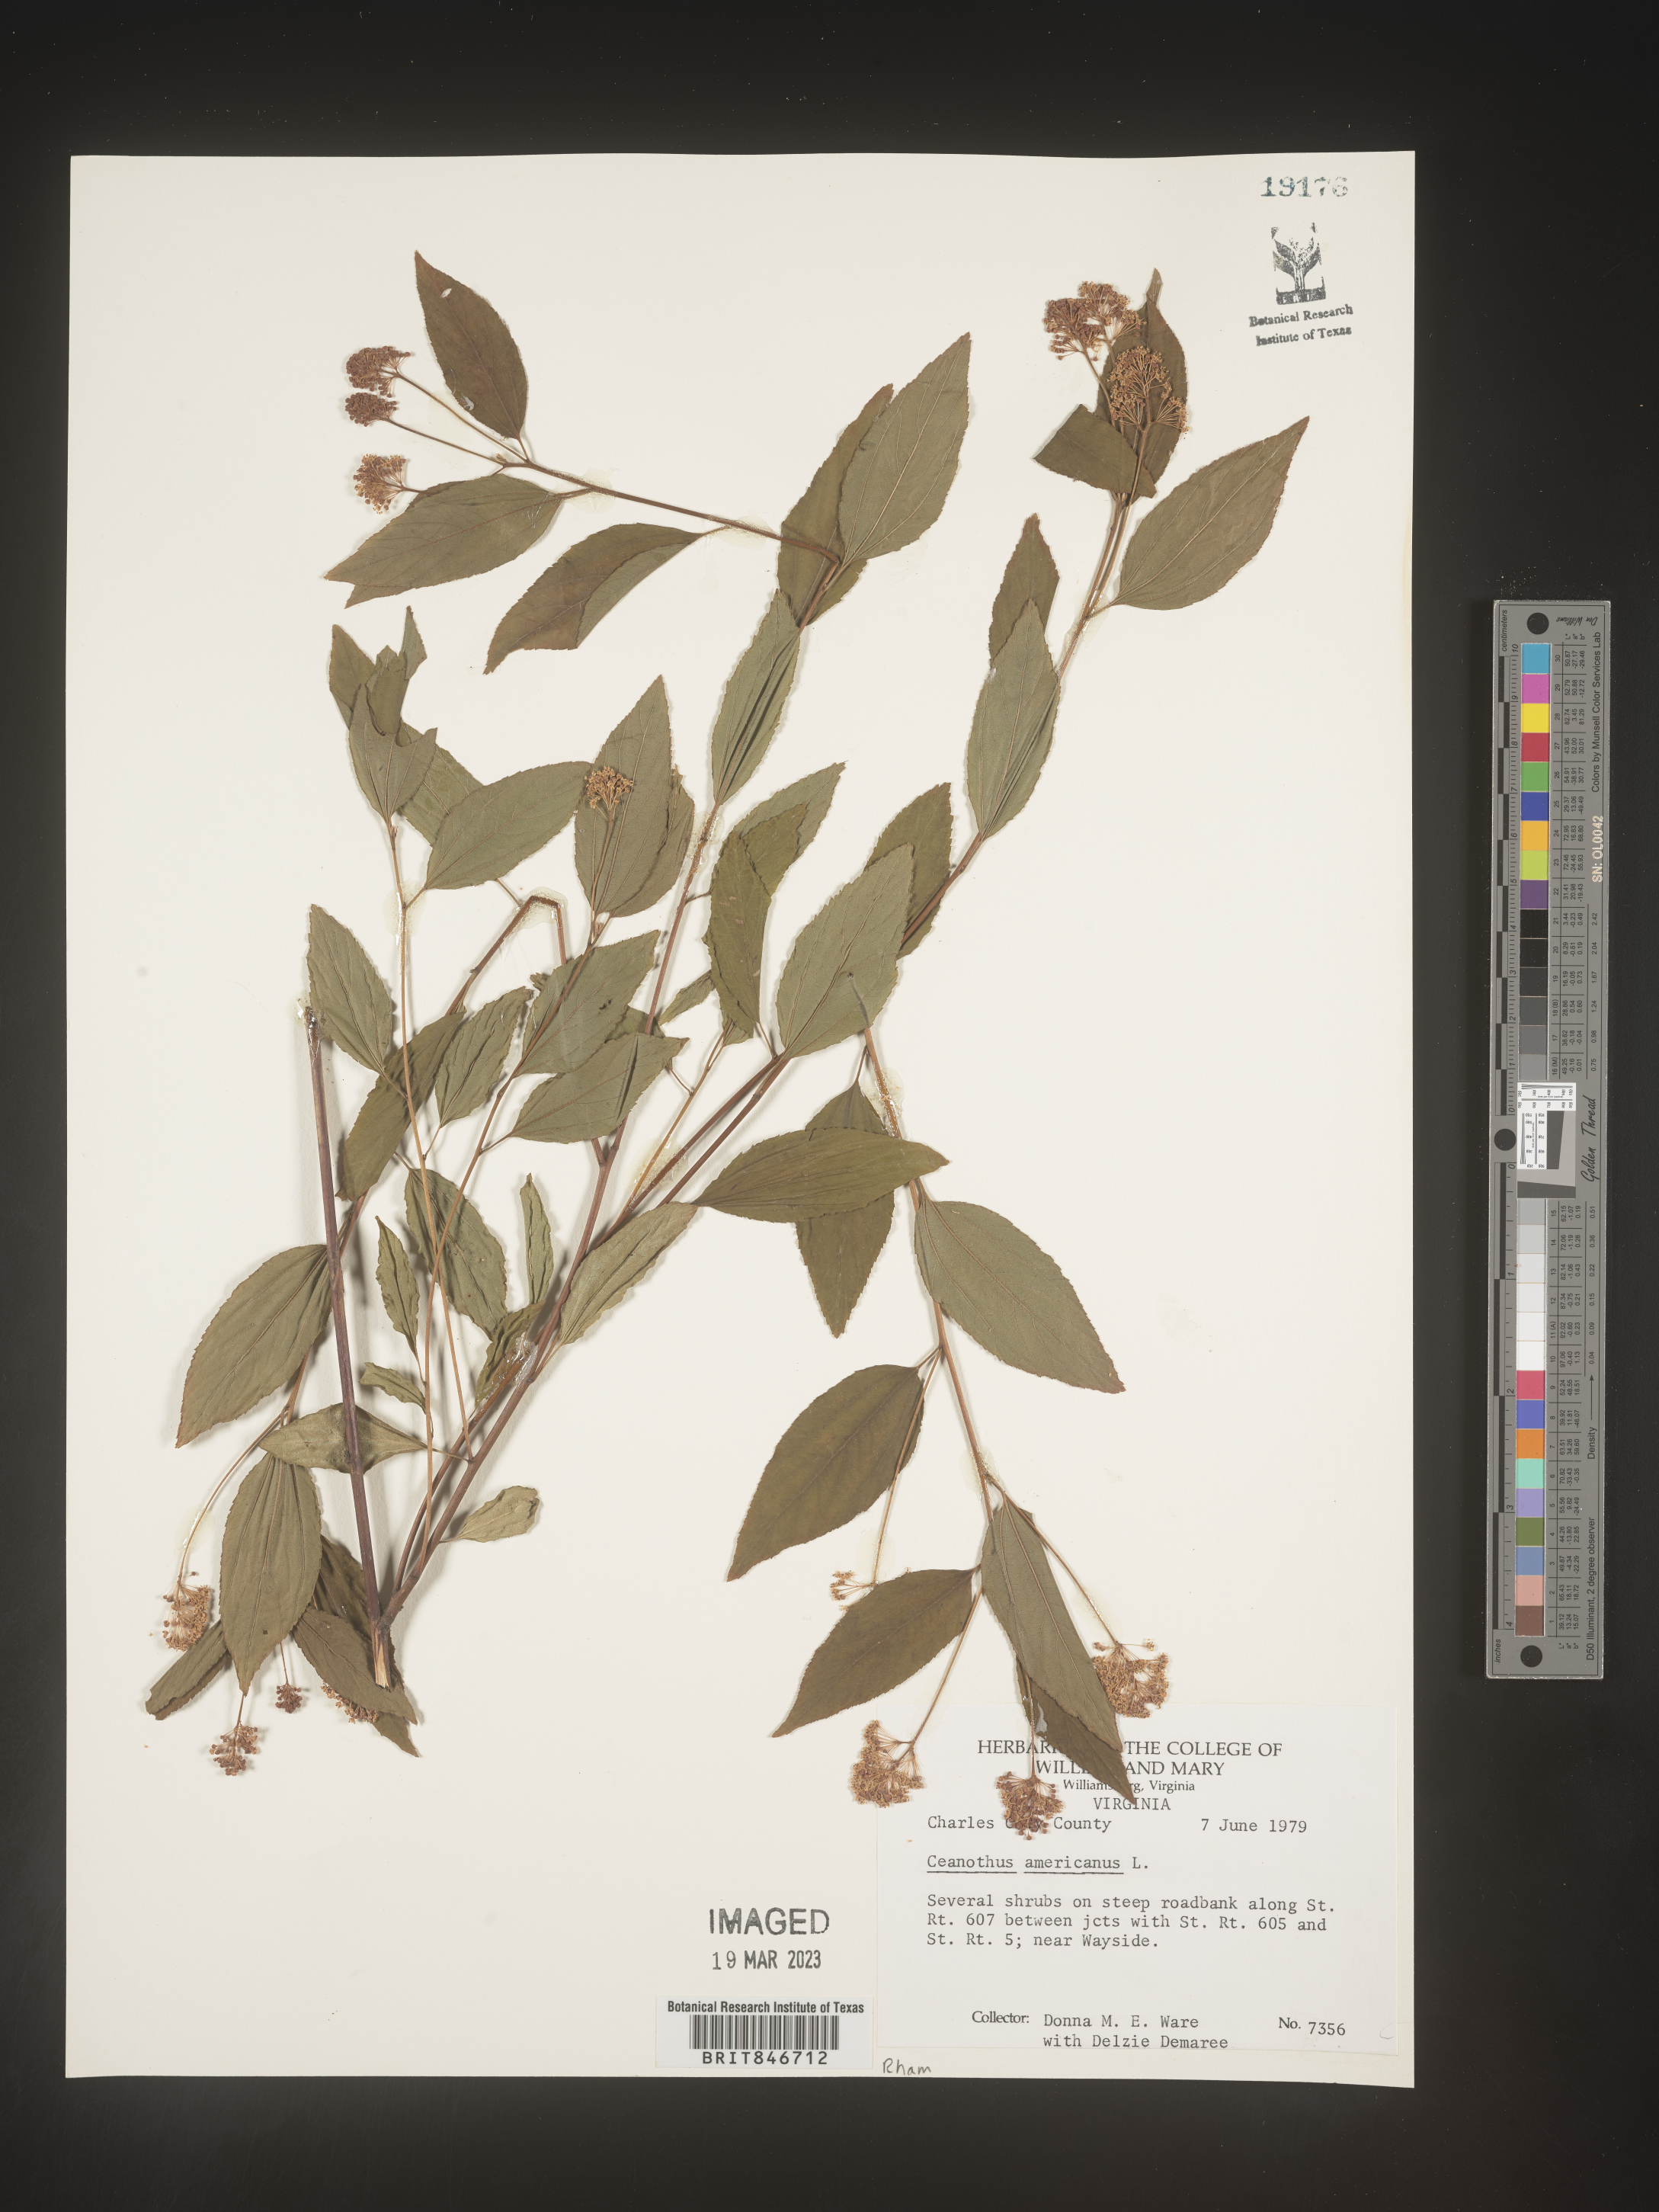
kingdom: Plantae
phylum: Tracheophyta
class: Magnoliopsida
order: Rosales
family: Rhamnaceae
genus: Ceanothus
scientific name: Ceanothus americanus
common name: Redroot
